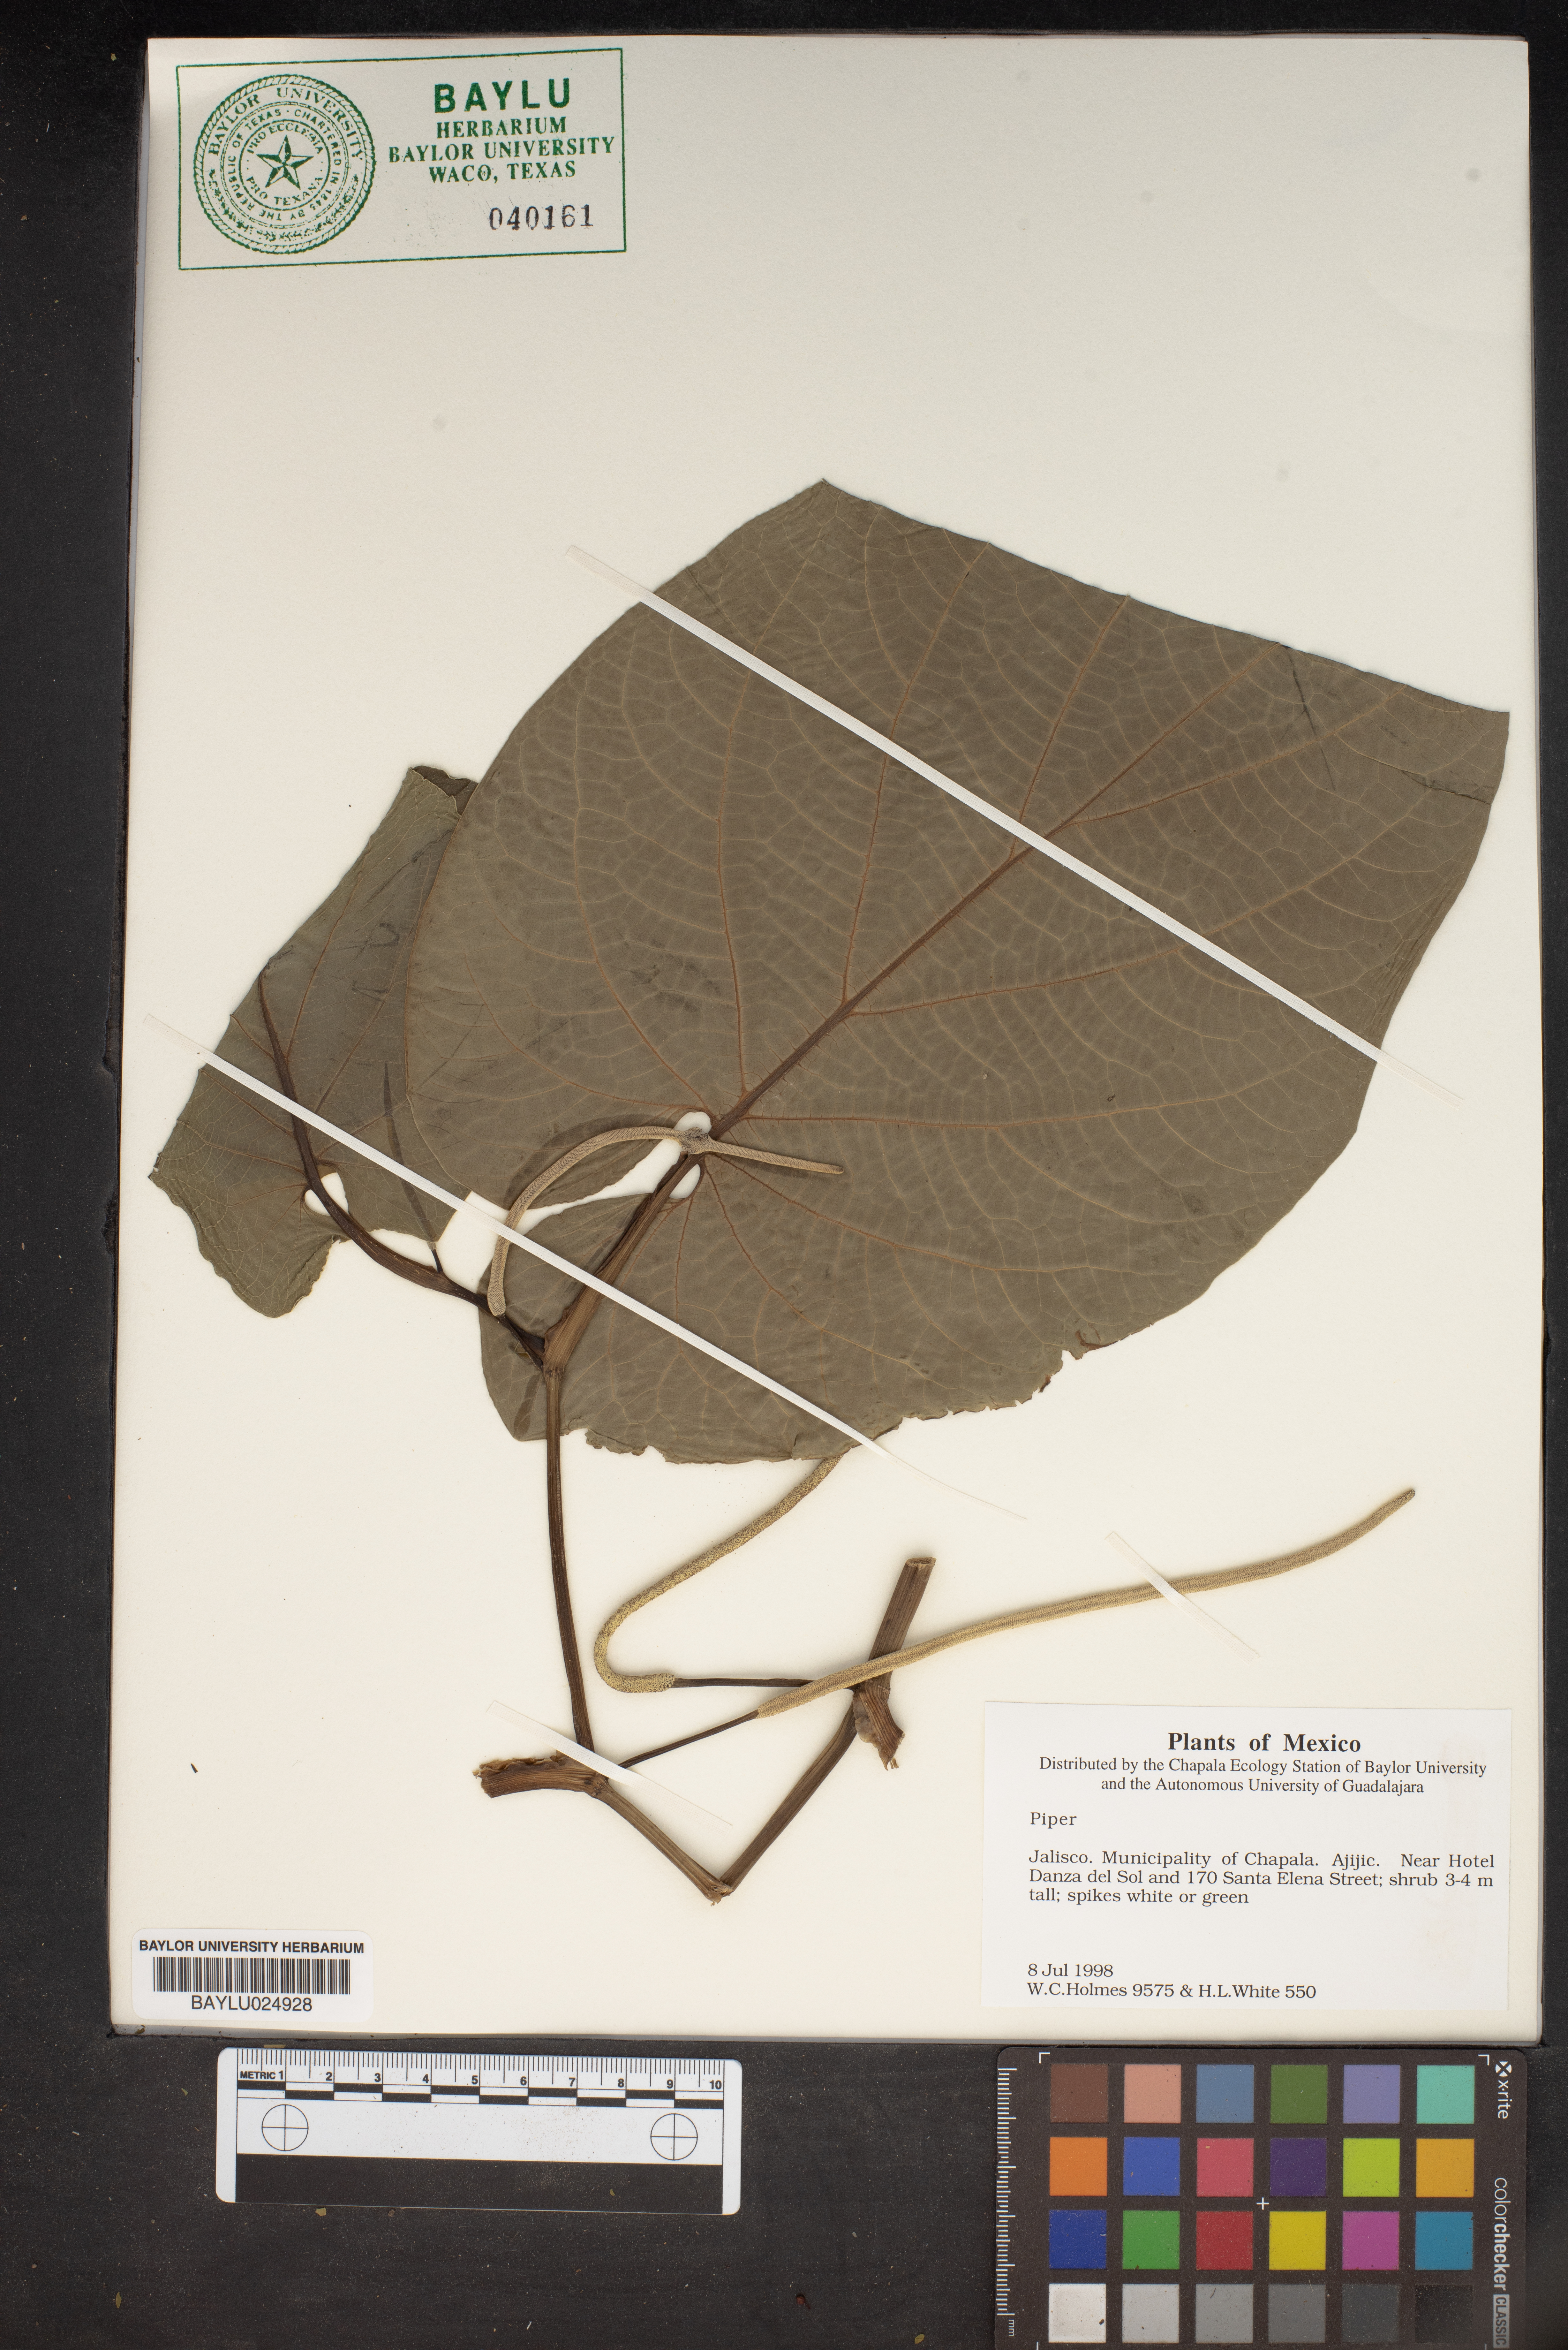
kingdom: Plantae
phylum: Tracheophyta
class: Magnoliopsida
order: Piperales
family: Piperaceae
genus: Piper
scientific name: Piper
